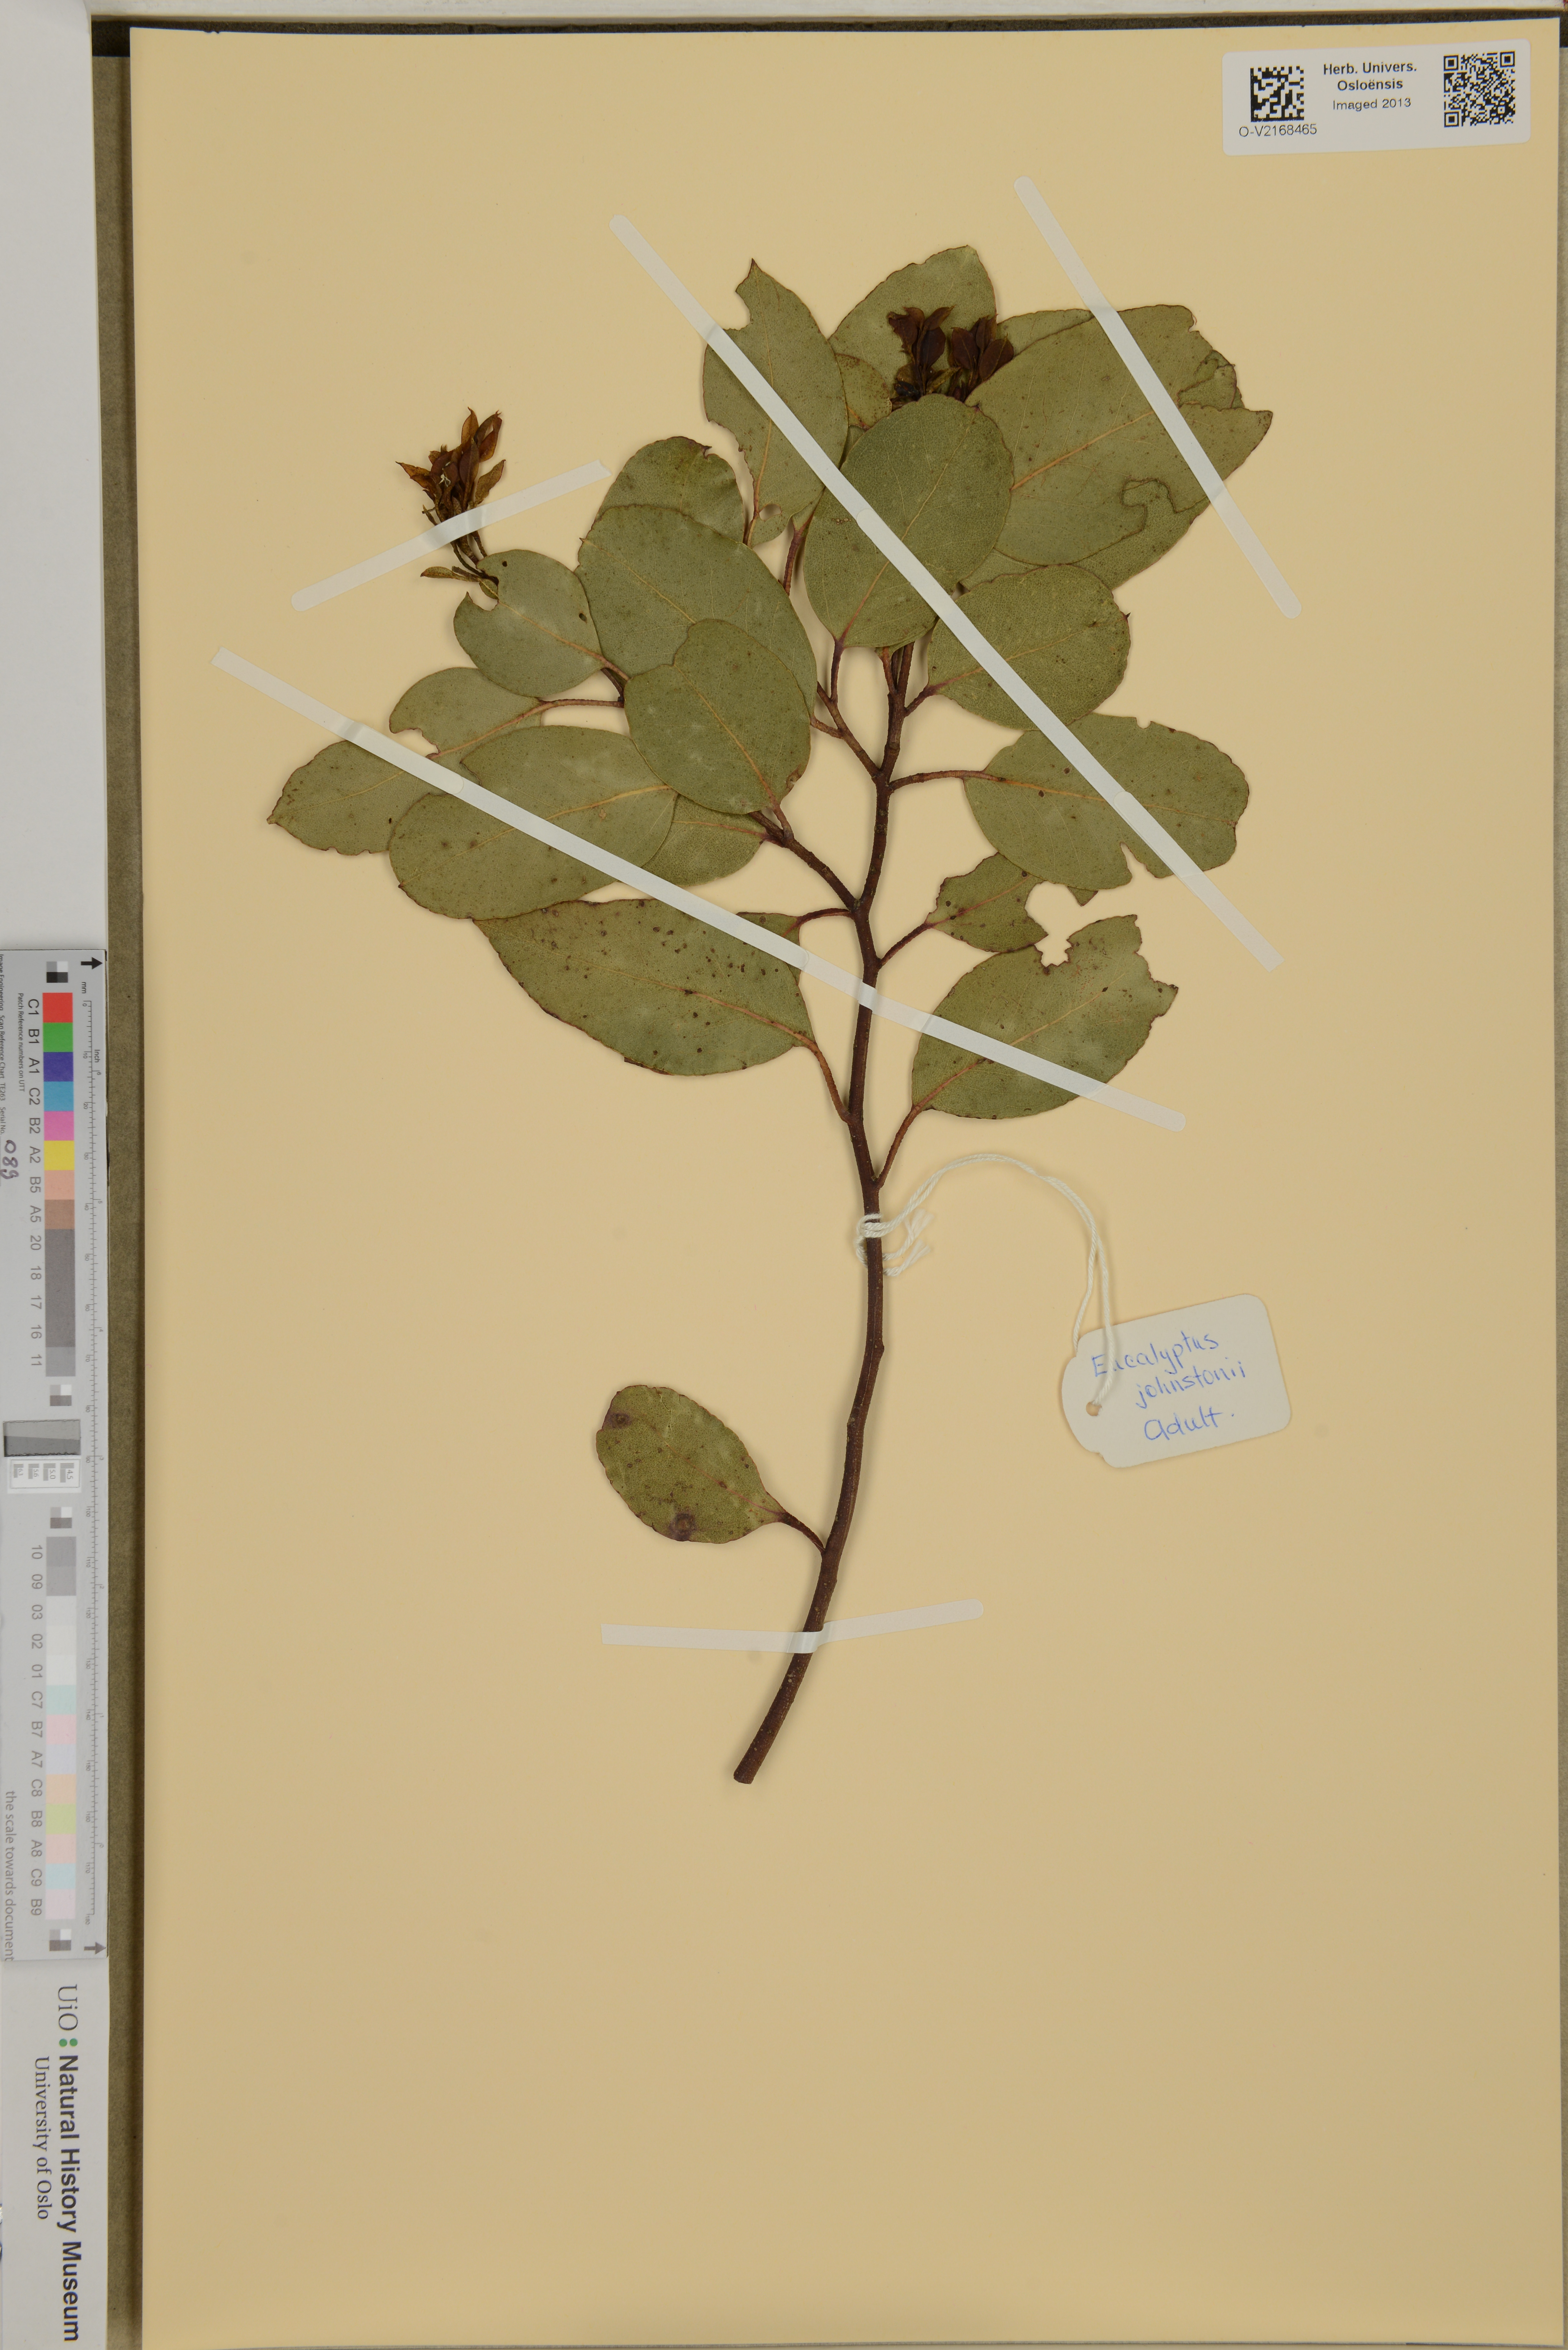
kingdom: Plantae
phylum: Tracheophyta
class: Magnoliopsida
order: Myrtales
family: Myrtaceae
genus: Eucalyptus
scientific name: Eucalyptus johnstonii
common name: Johnston's gum
